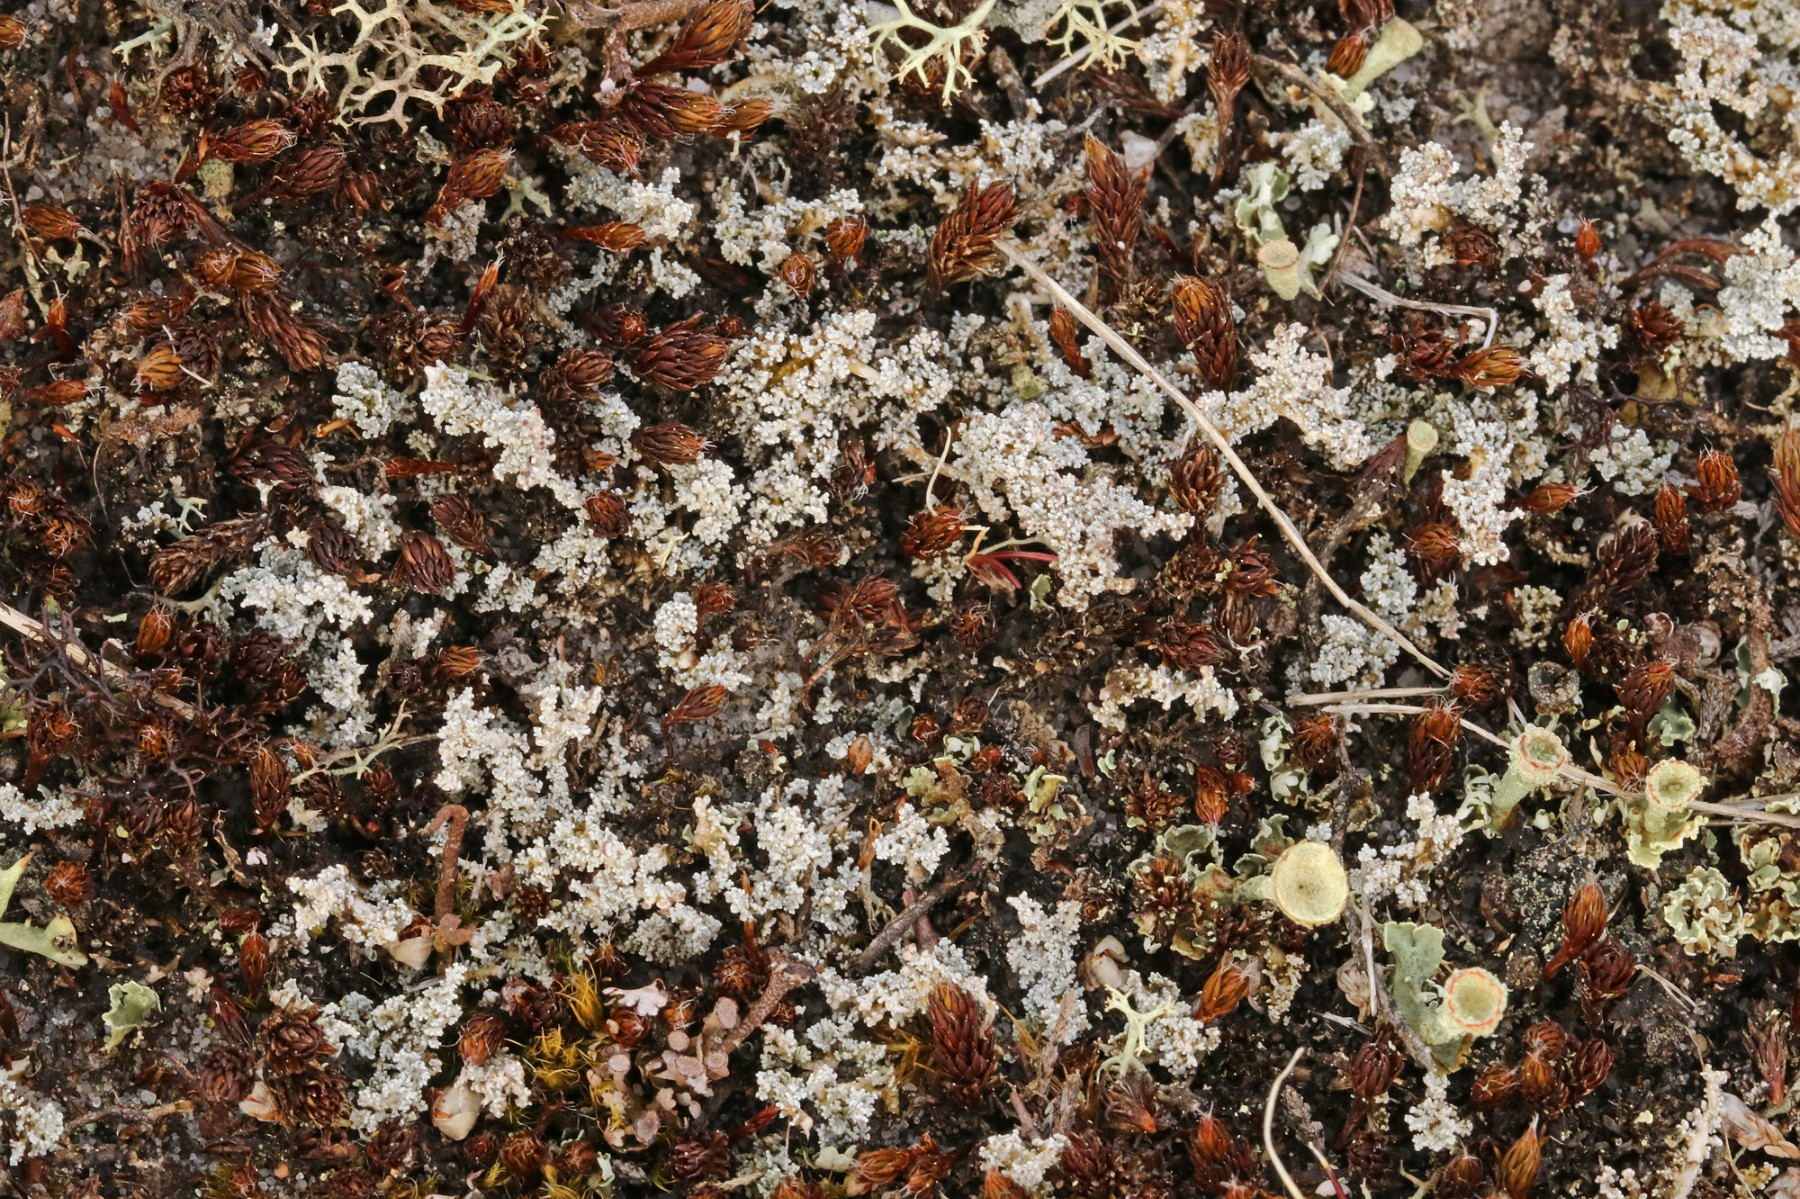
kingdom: Fungi
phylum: Ascomycota
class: Lecanoromycetes
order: Lecanorales
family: Stereocaulaceae
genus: Stereocaulon
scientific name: Stereocaulon saxatile
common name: klit-korallav
